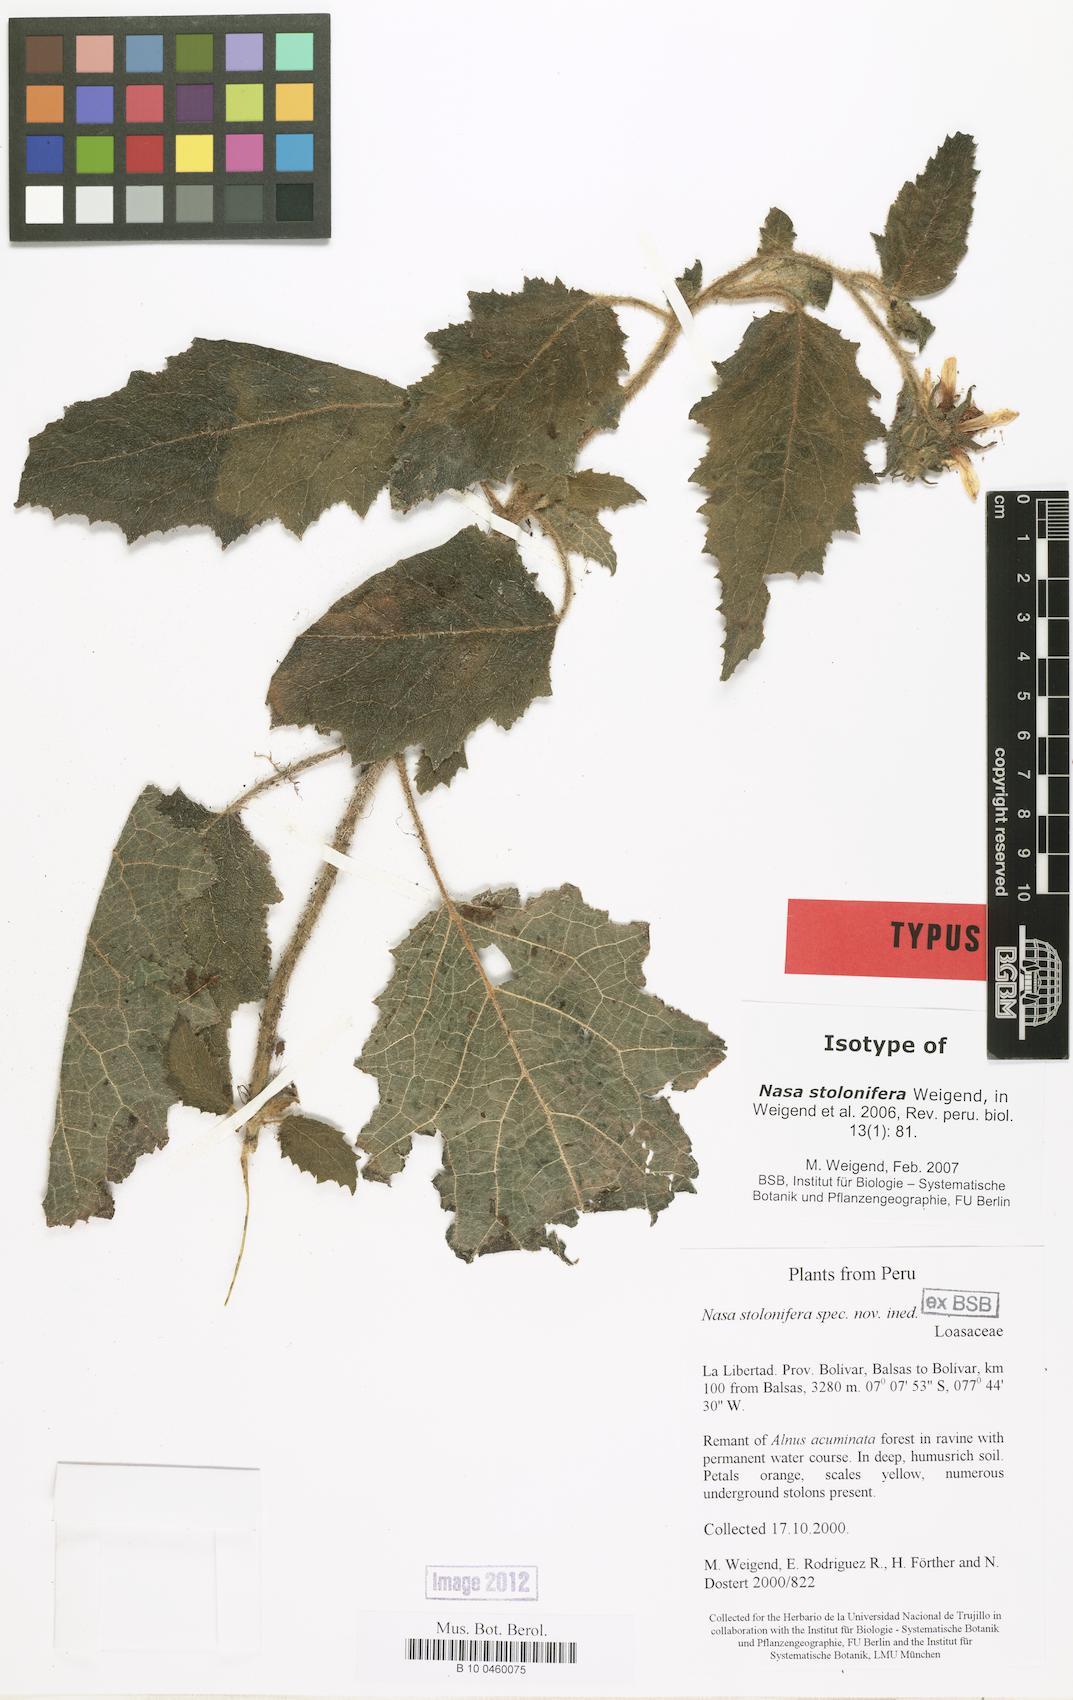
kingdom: Plantae
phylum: Tracheophyta
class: Magnoliopsida
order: Cornales
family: Loasaceae
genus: Nasa
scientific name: Nasa stolonifera
